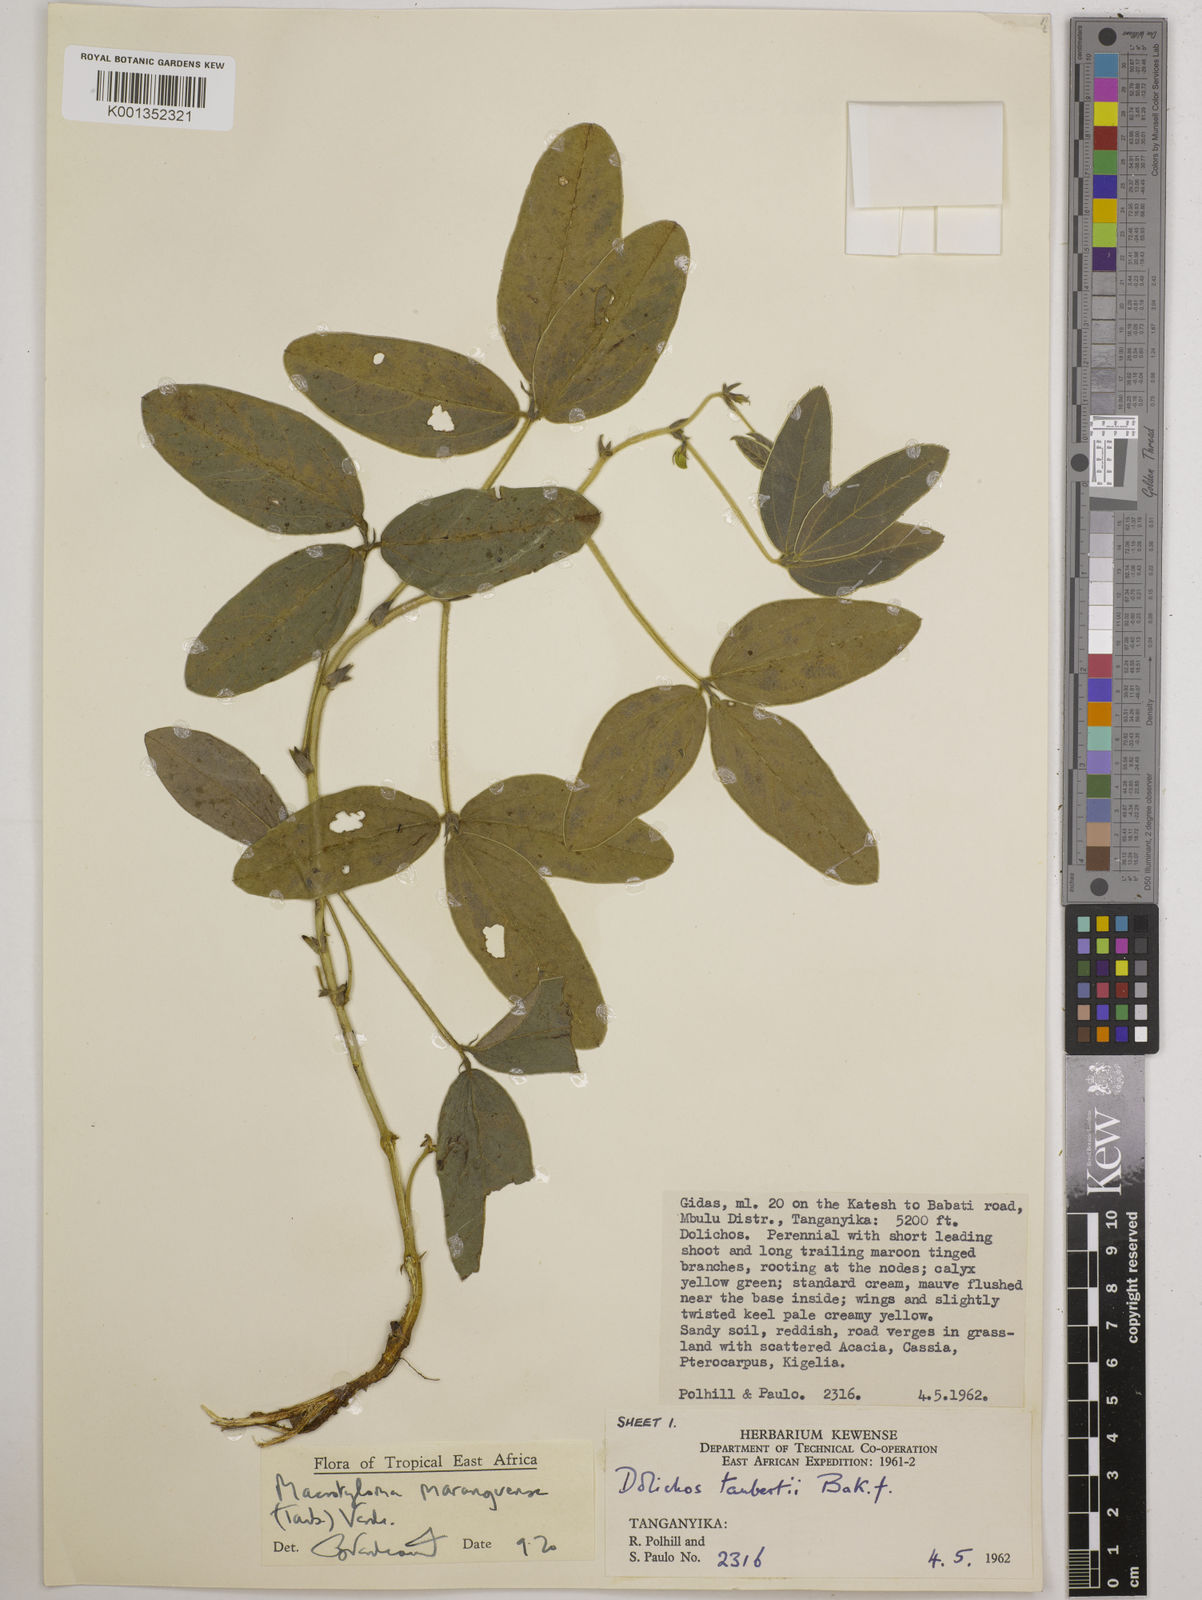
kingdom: Plantae
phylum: Tracheophyta
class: Magnoliopsida
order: Fabales
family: Fabaceae
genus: Macrotyloma
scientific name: Macrotyloma maranguense
